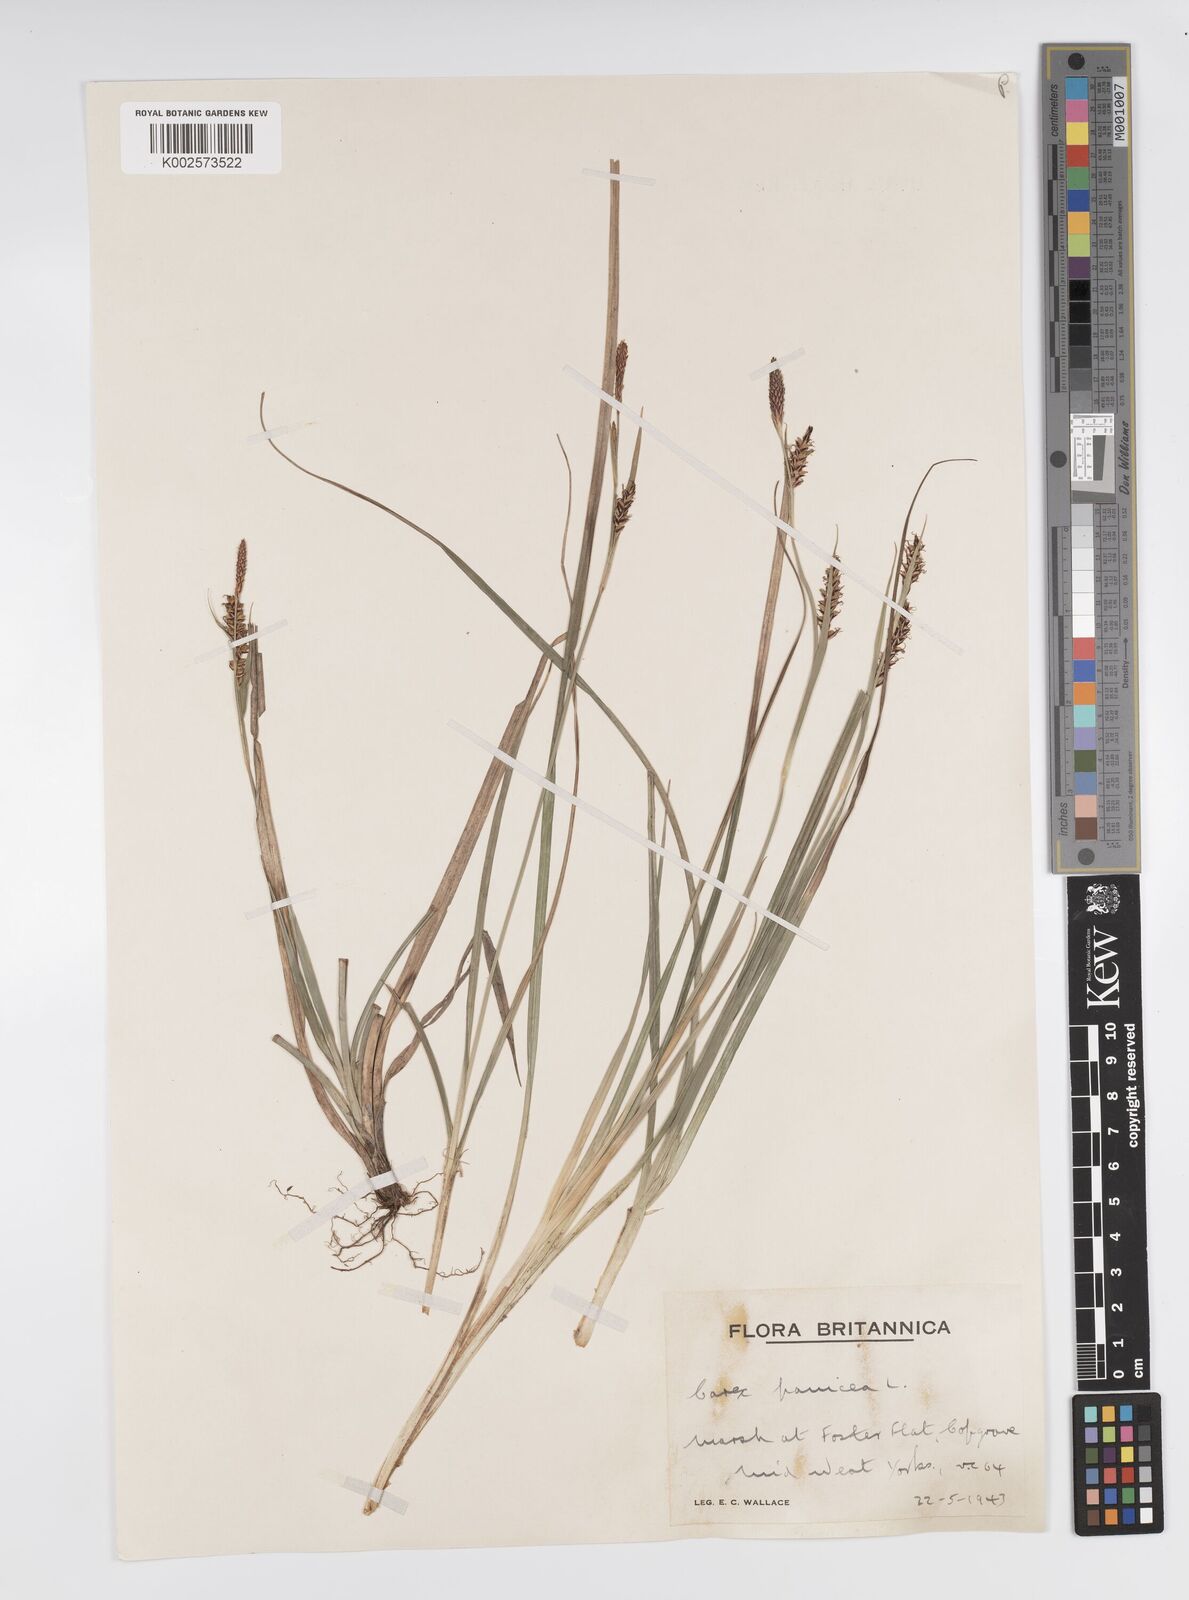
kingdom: Plantae
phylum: Tracheophyta
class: Liliopsida
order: Poales
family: Cyperaceae
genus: Carex
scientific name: Carex panicea
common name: Carnation sedge
